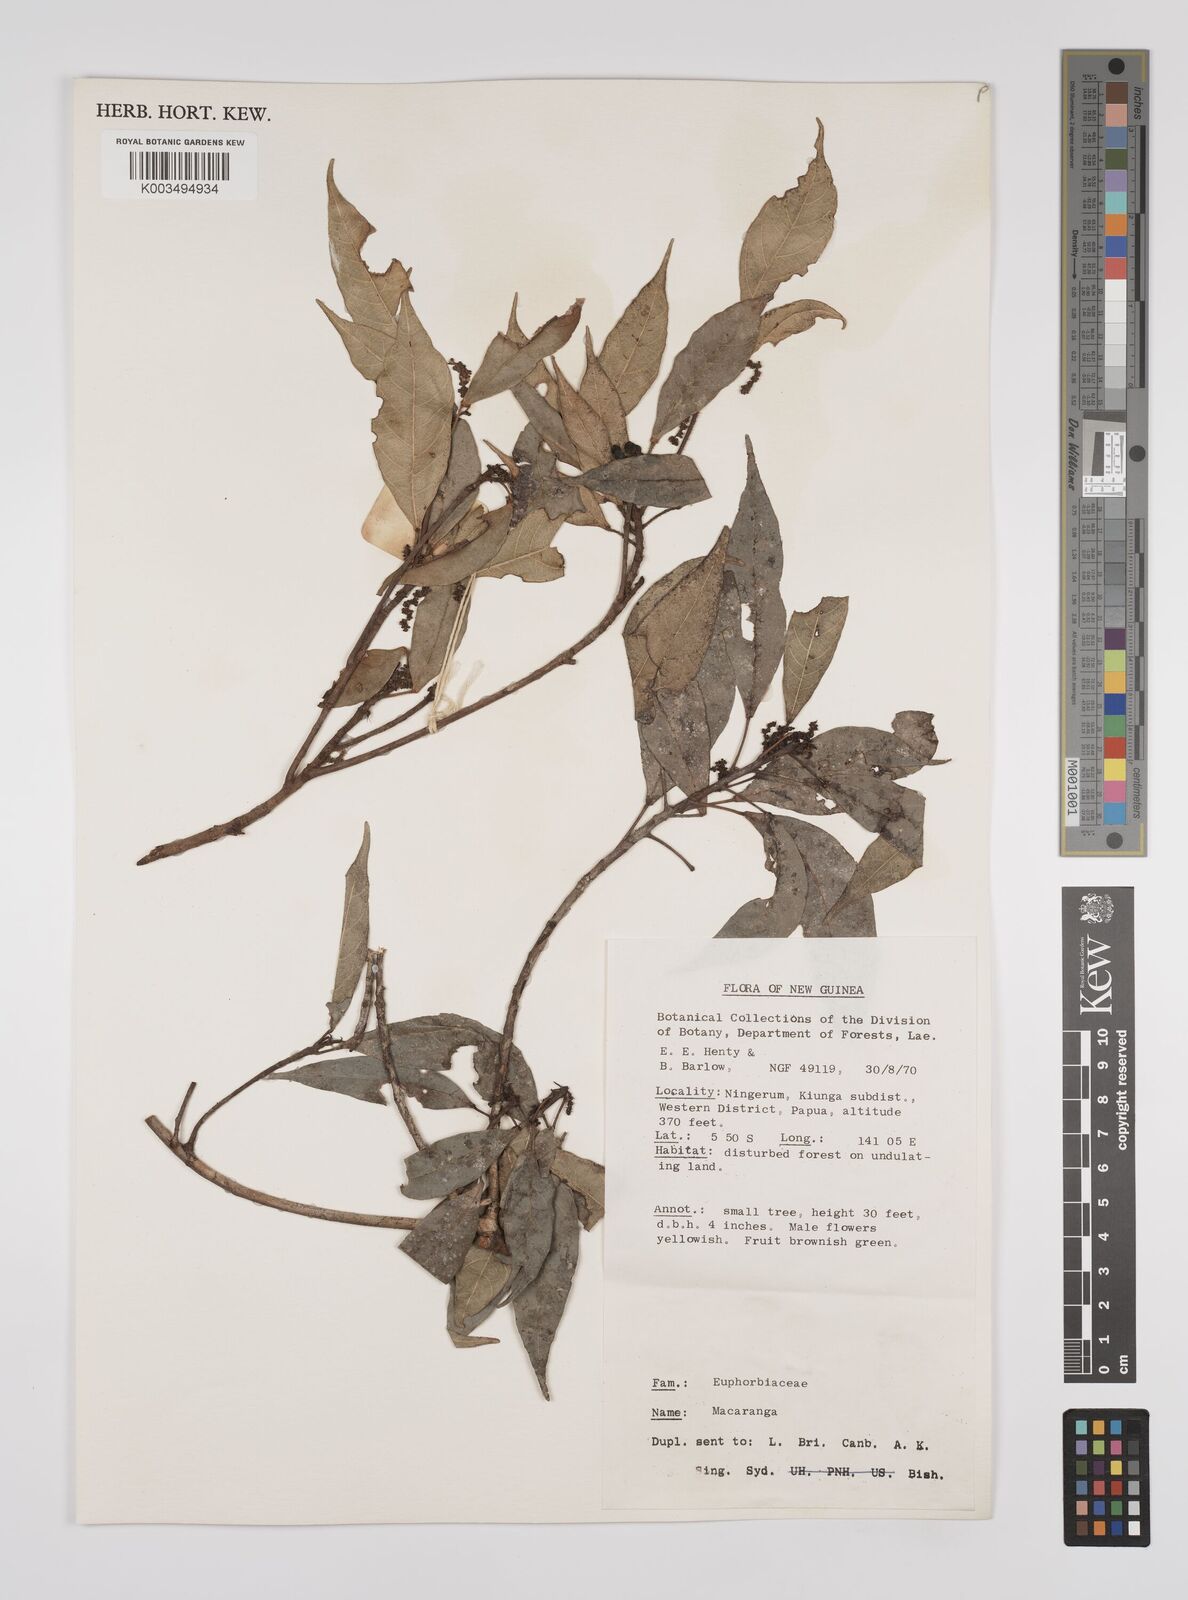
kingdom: Plantae
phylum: Tracheophyta
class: Magnoliopsida
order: Malpighiales
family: Euphorbiaceae
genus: Macaranga
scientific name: Macaranga glaberrima
